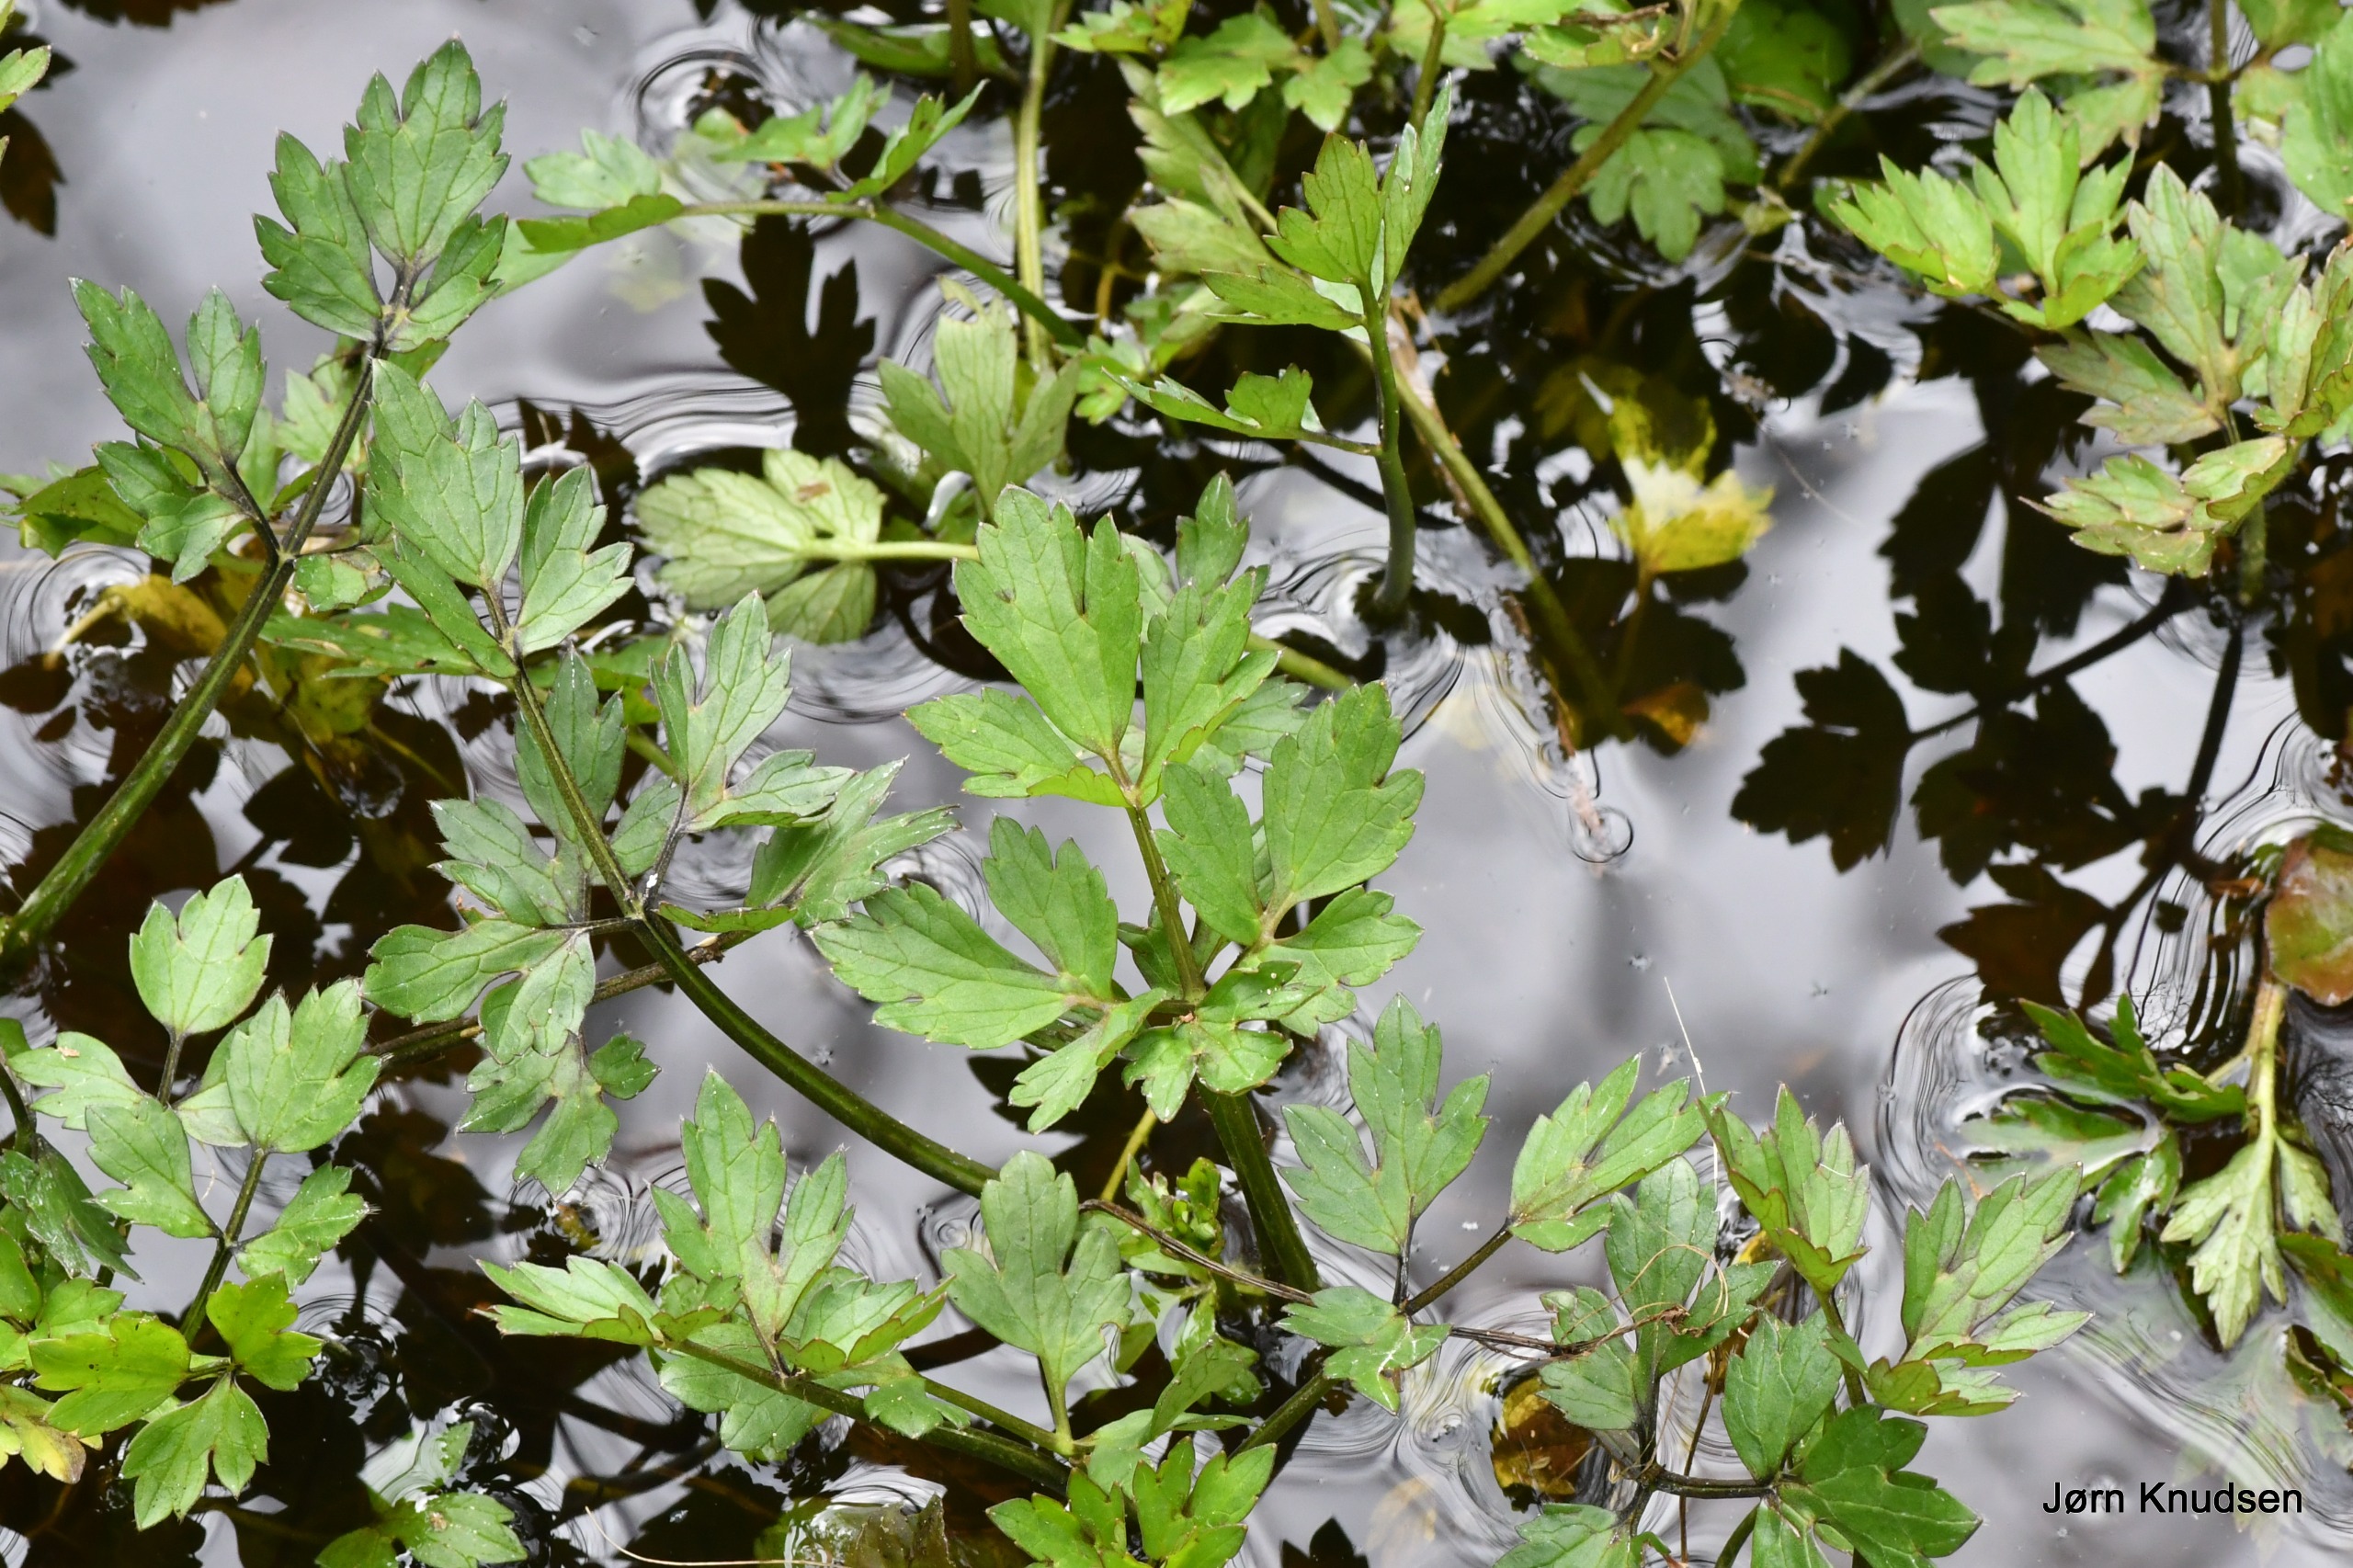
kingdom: Plantae
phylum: Tracheophyta
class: Magnoliopsida
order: Ranunculales
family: Ranunculaceae
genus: Ranunculus
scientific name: Ranunculus repens
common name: Lav ranunkel
